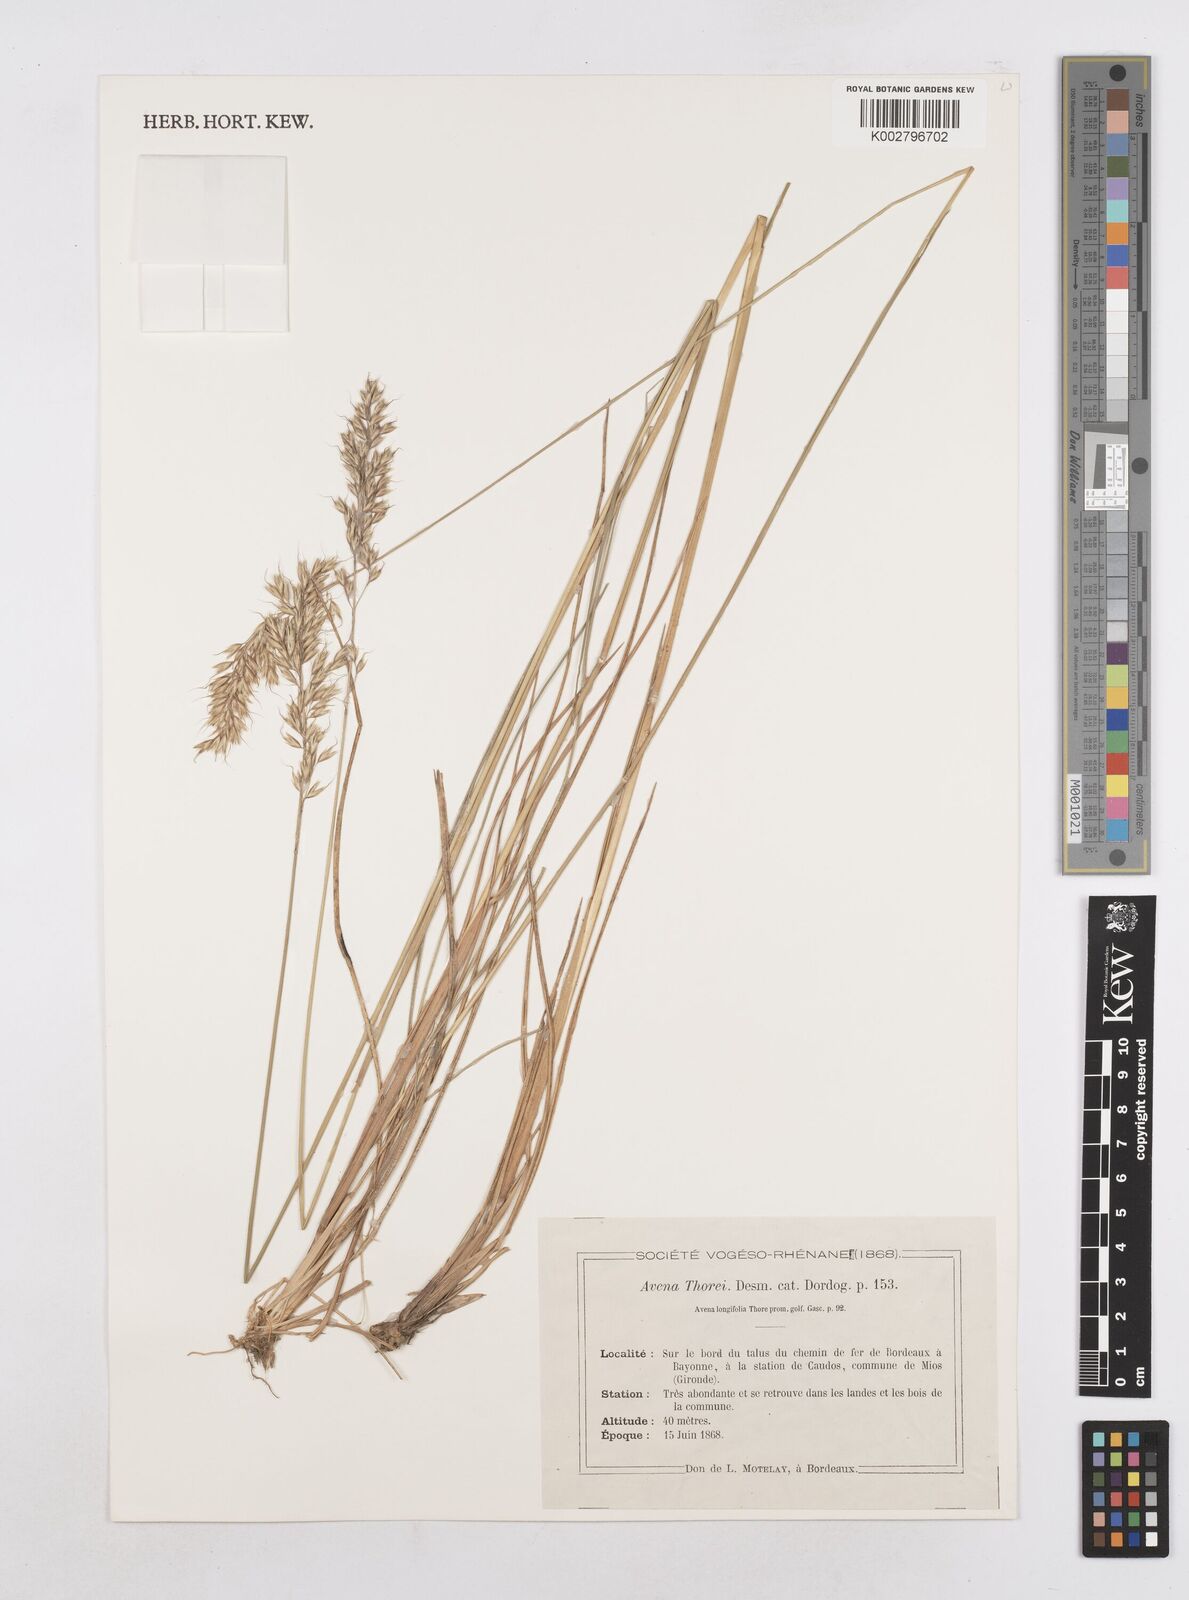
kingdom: Plantae
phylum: Tracheophyta
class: Liliopsida
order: Poales
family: Poaceae
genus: Arrhenatherum
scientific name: Arrhenatherum longifolium
